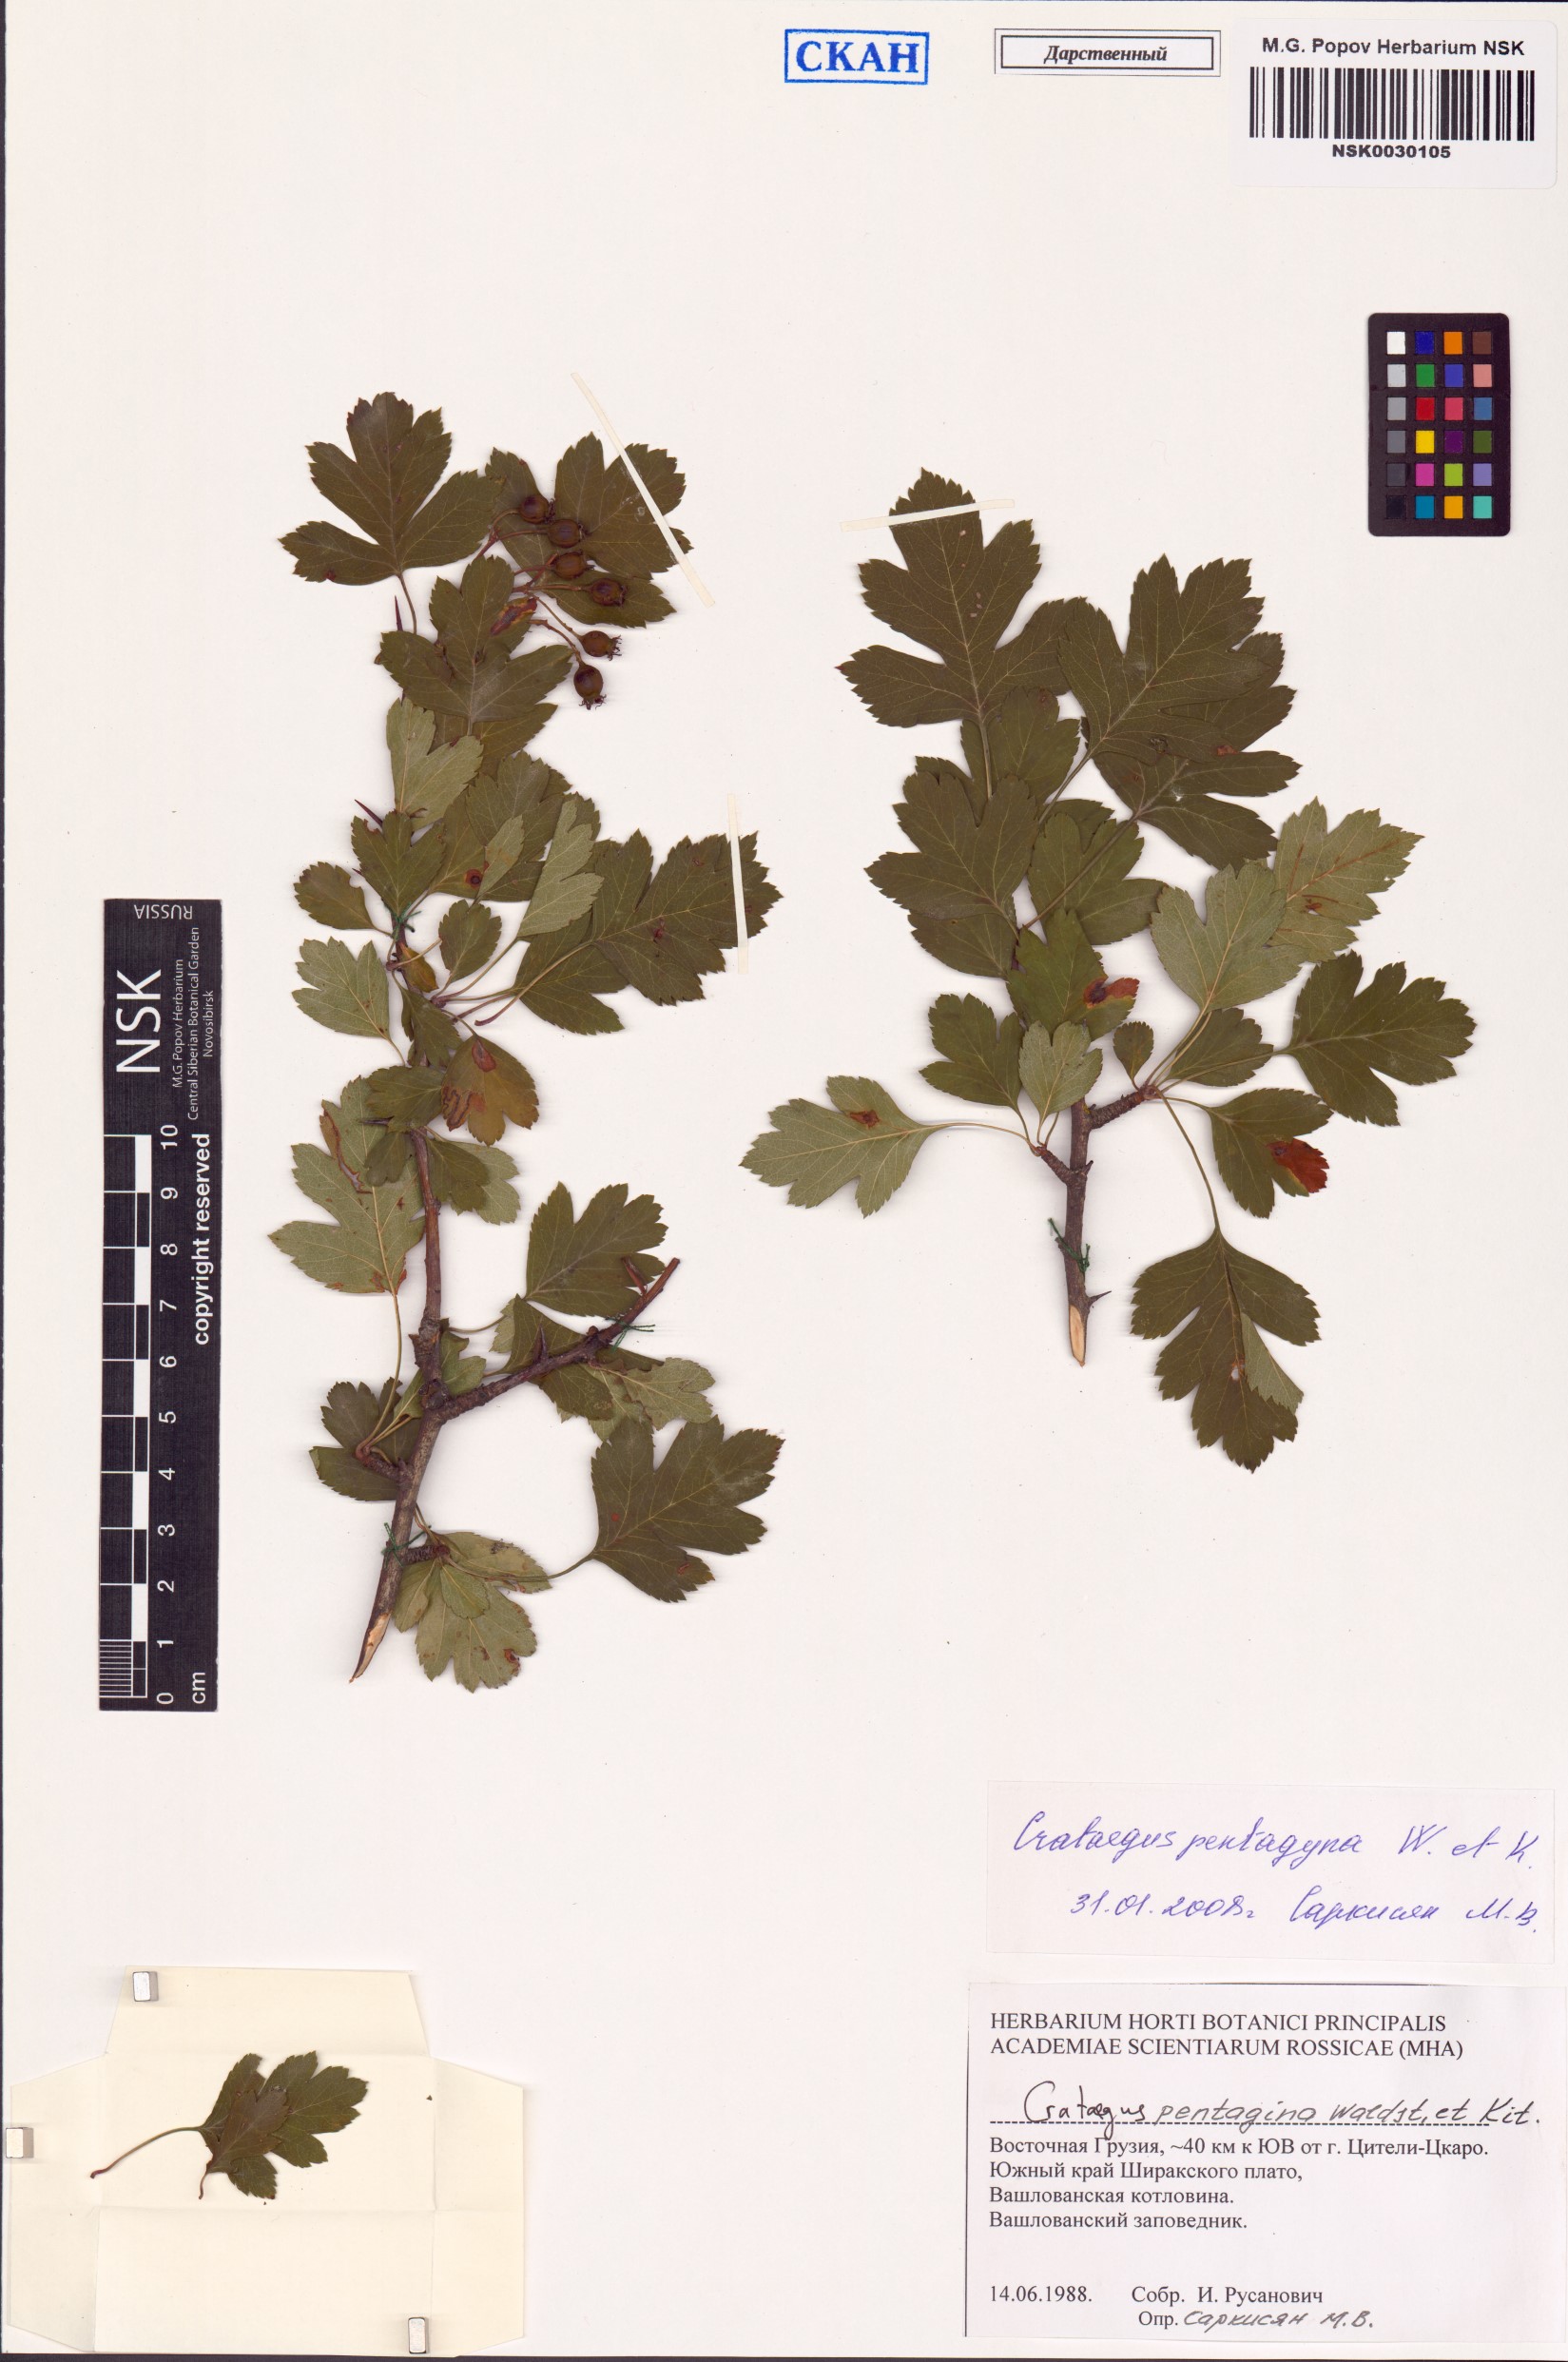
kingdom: Plantae
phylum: Tracheophyta
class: Magnoliopsida
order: Rosales
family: Rosaceae
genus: Crataegus
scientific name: Crataegus pentagyna
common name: Small-flowered black hawthorn
